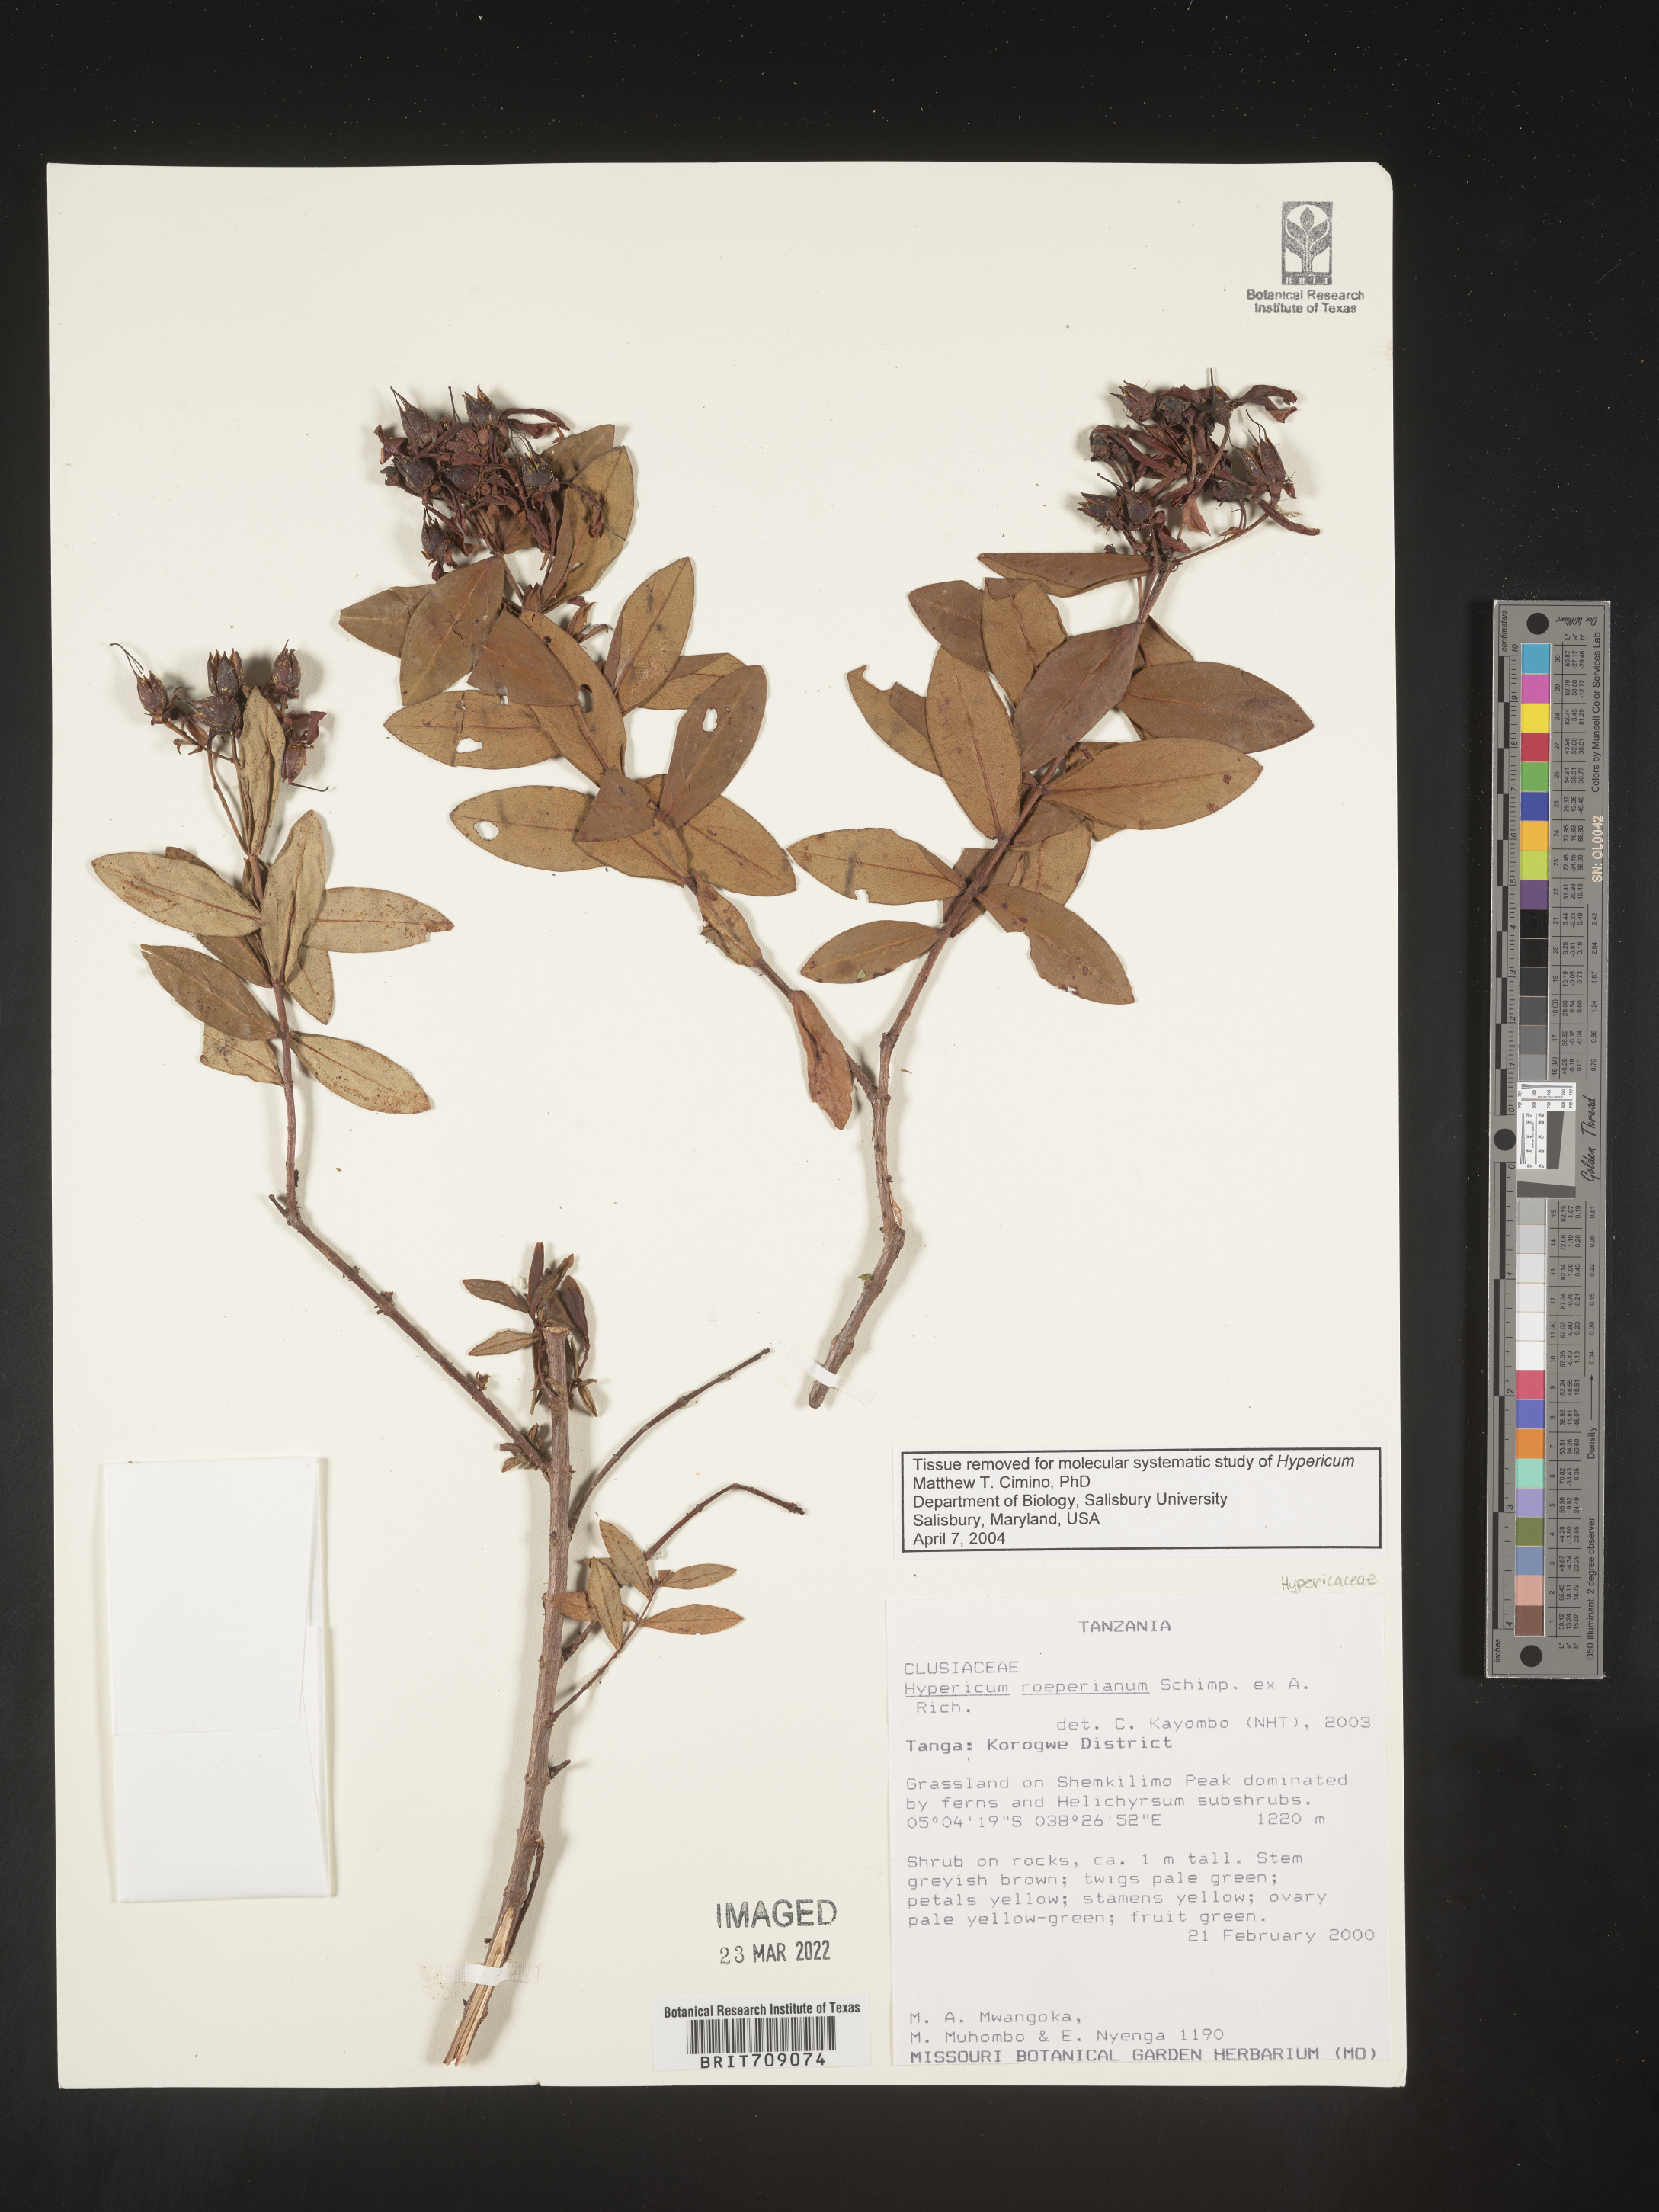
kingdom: Plantae
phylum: Tracheophyta
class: Magnoliopsida
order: Malpighiales
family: Hypericaceae
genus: Hypericum
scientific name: Hypericum
